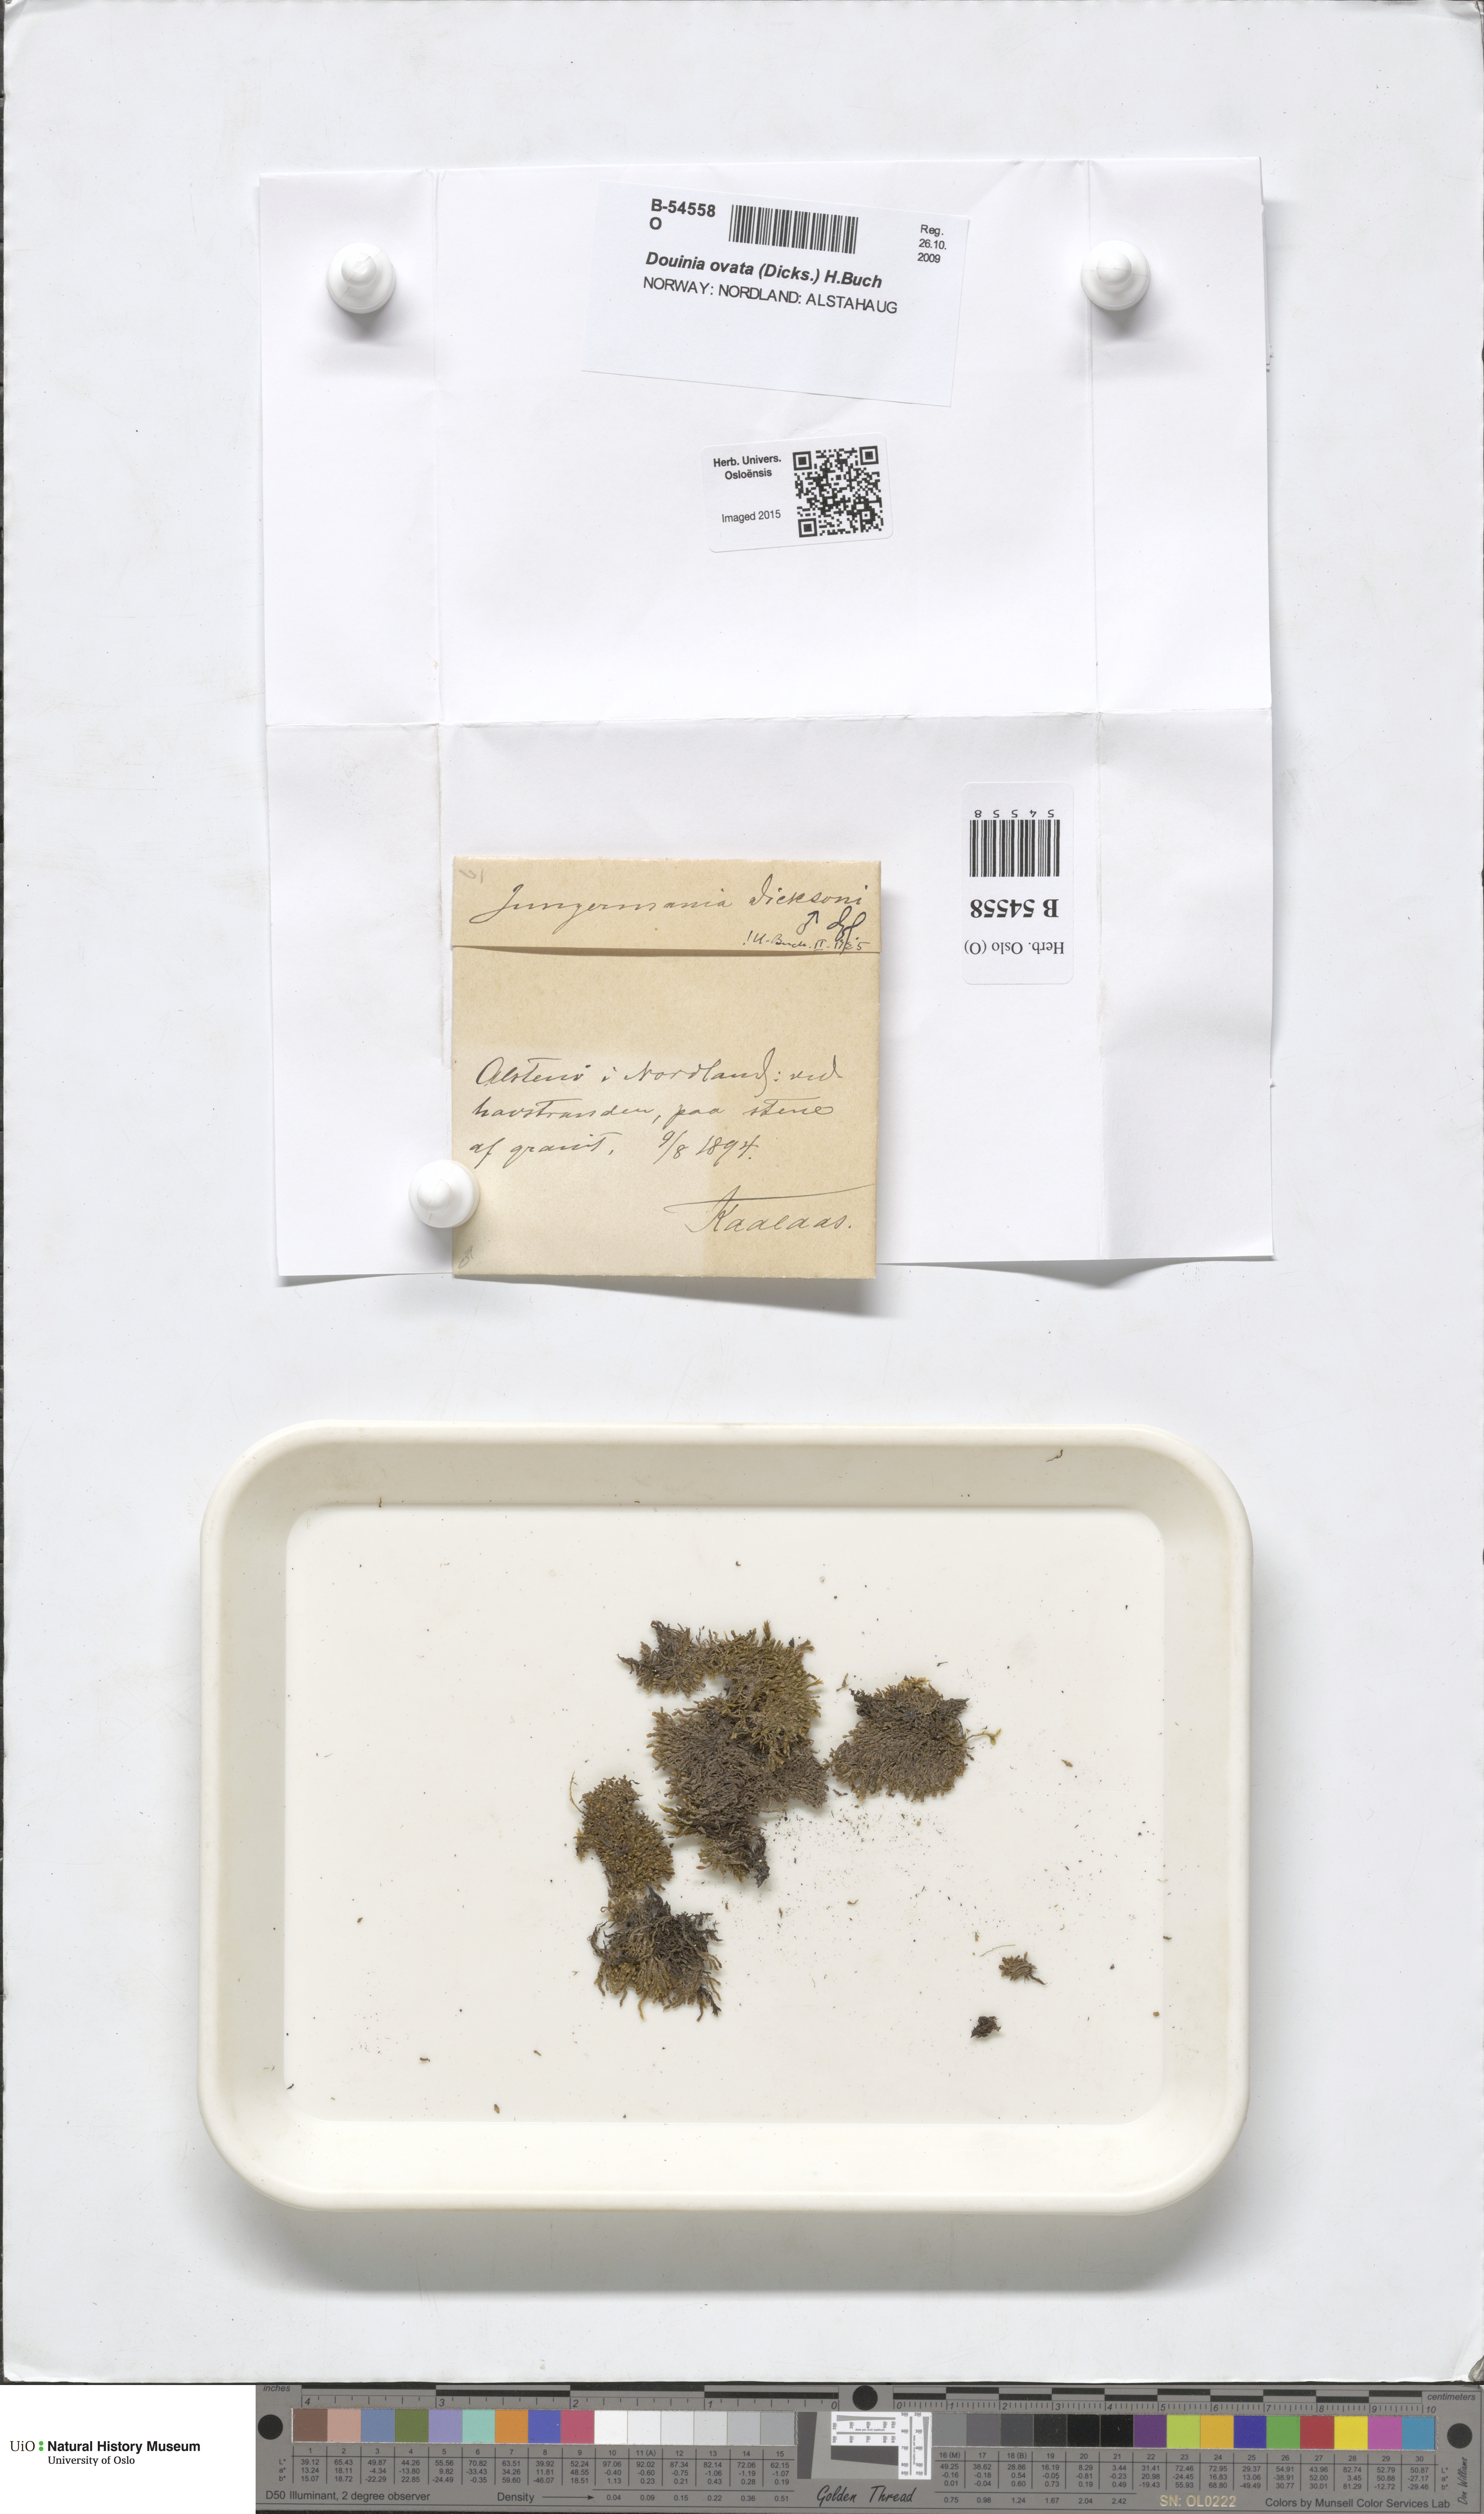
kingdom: Plantae
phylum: Marchantiophyta
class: Jungermanniopsida
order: Jungermanniales
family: Scapaniaceae
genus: Douinia
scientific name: Douinia ovata
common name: Waxy earwort
